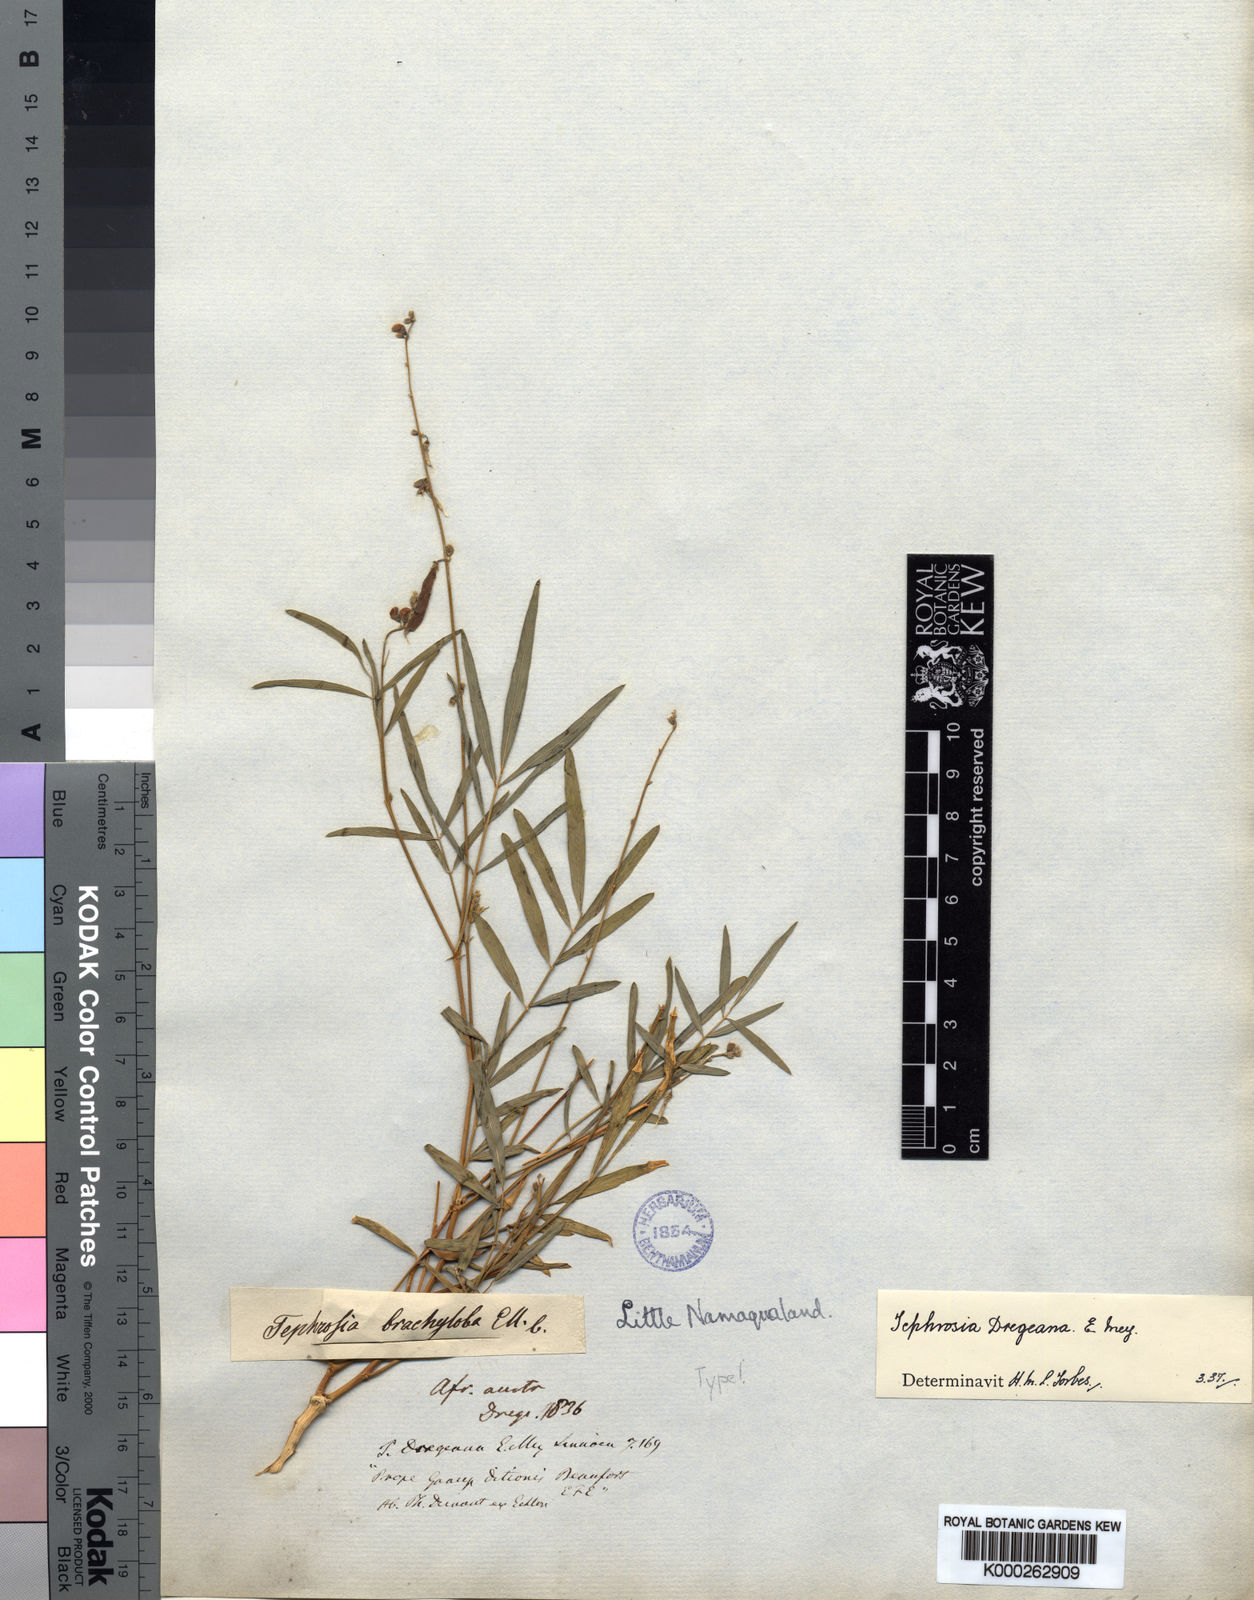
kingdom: Plantae
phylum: Tracheophyta
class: Magnoliopsida
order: Fabales
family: Fabaceae
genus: Tephrosia
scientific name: Tephrosia dregeana
